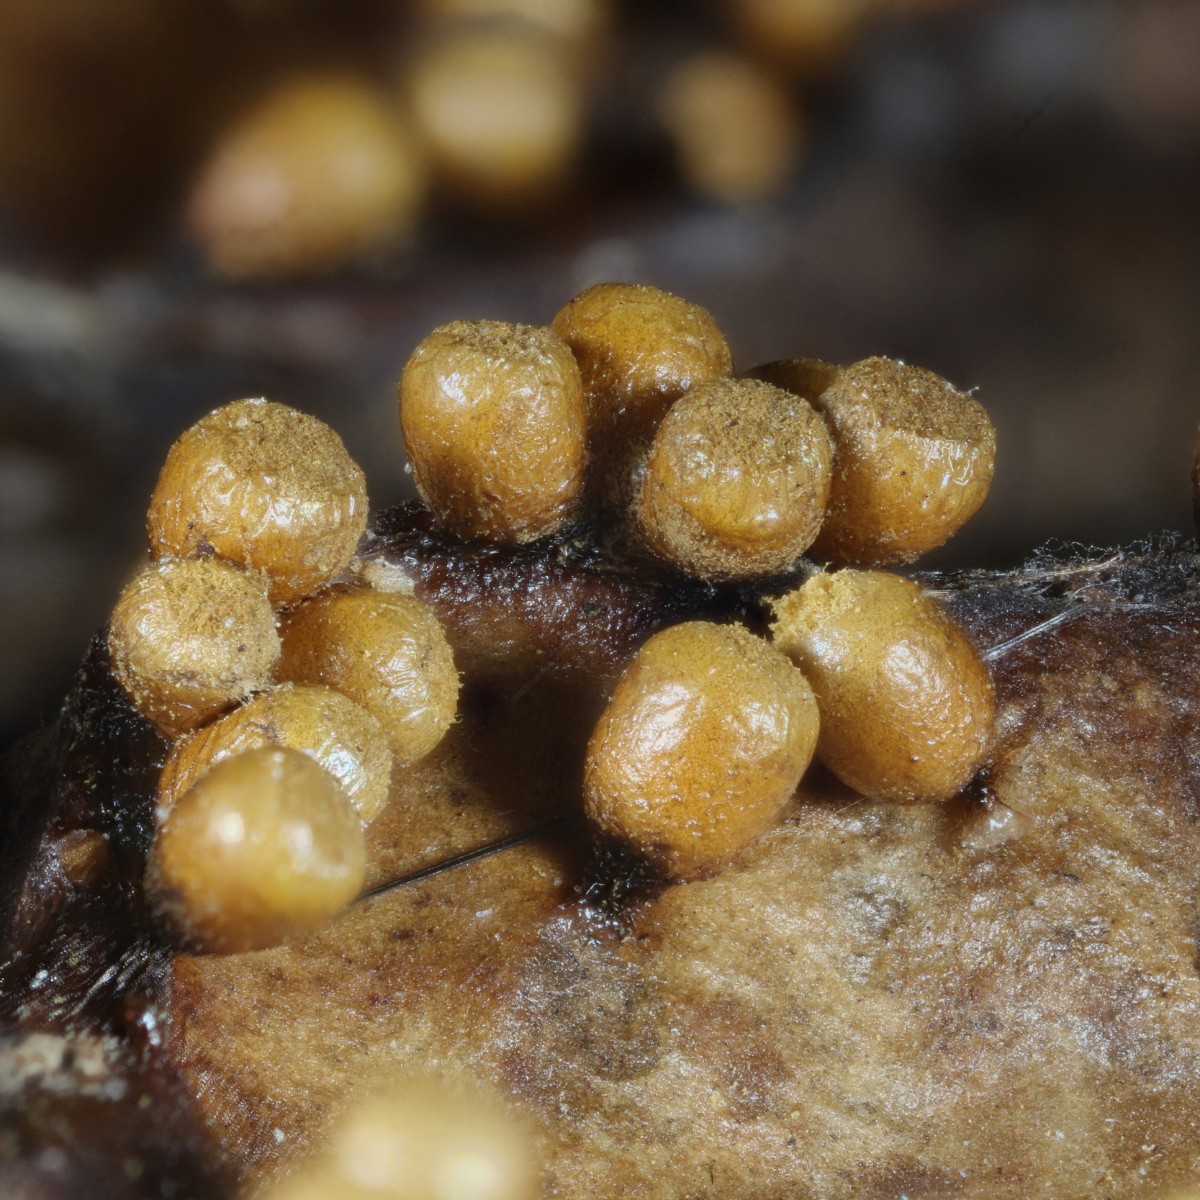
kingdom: Protozoa
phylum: Mycetozoa
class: Myxomycetes
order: Trichiales
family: Trichiaceae
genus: Trichia
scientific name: Trichia varia
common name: foranderlig hårbold
